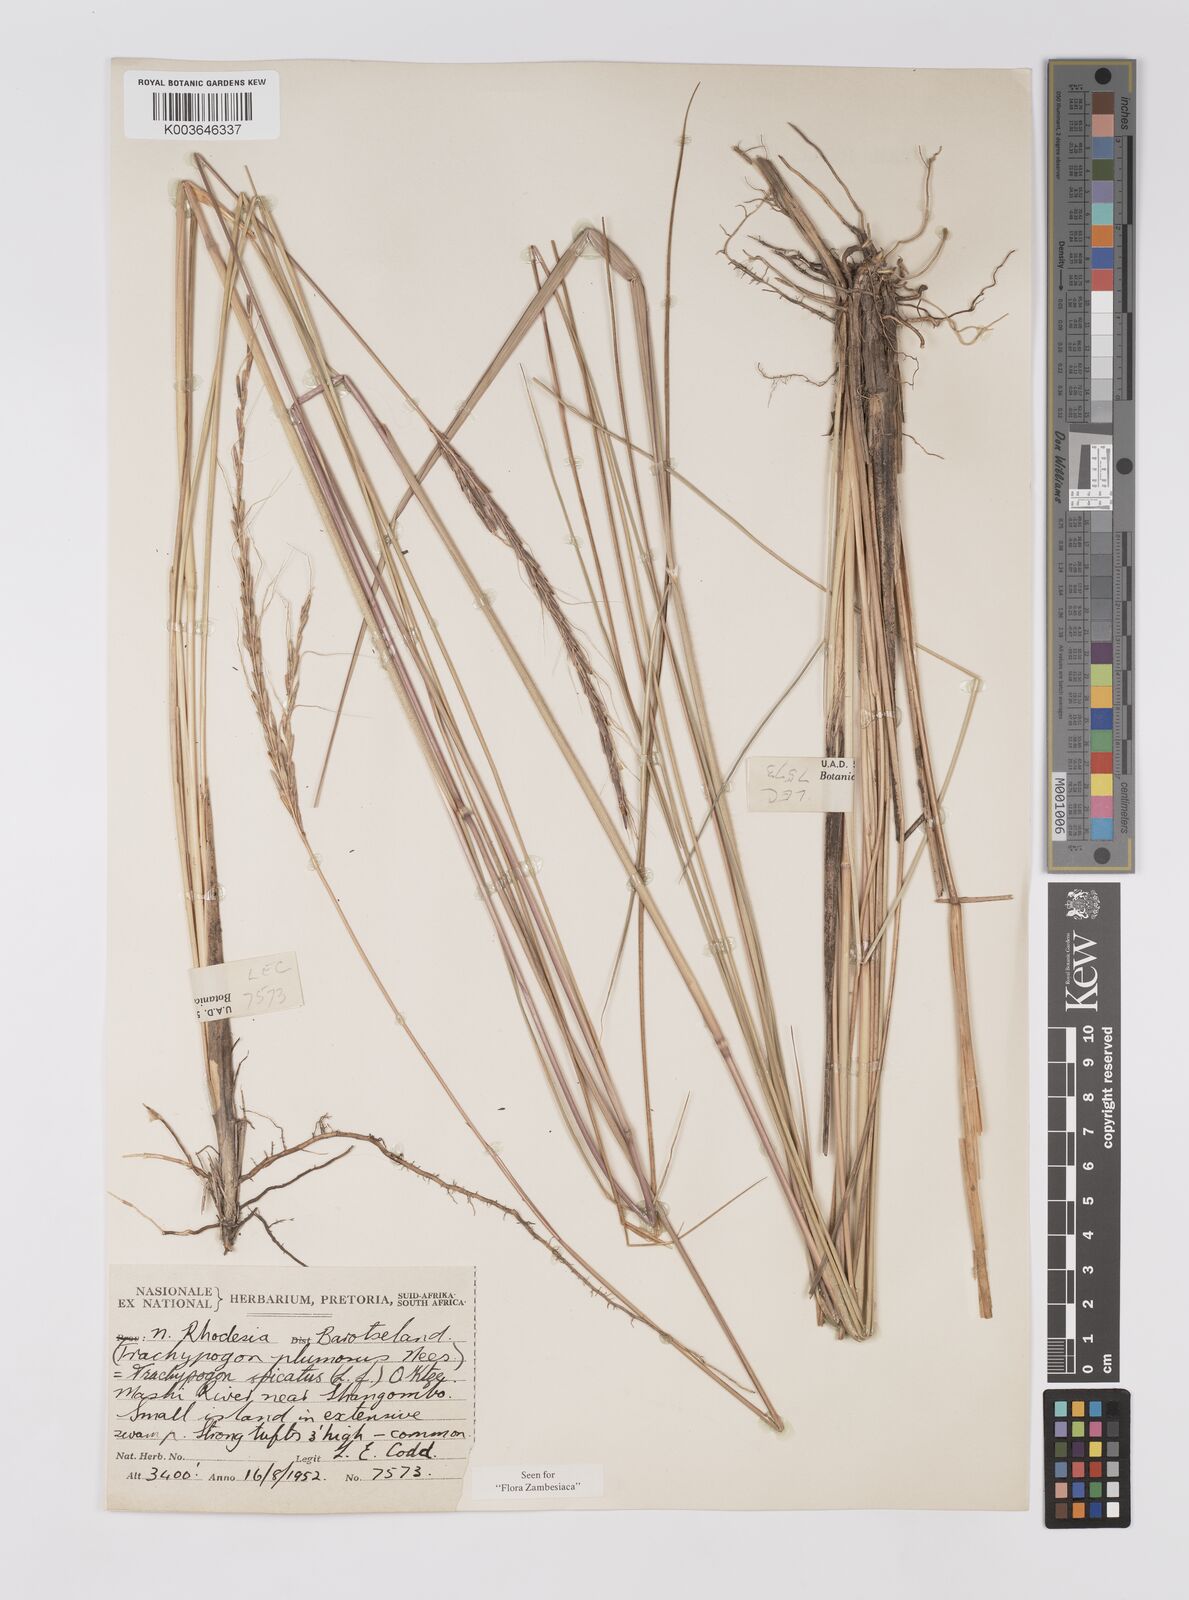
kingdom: Plantae
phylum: Tracheophyta
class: Liliopsida
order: Poales
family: Poaceae
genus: Trachypogon
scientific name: Trachypogon spicatus
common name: Crinkle-awn
